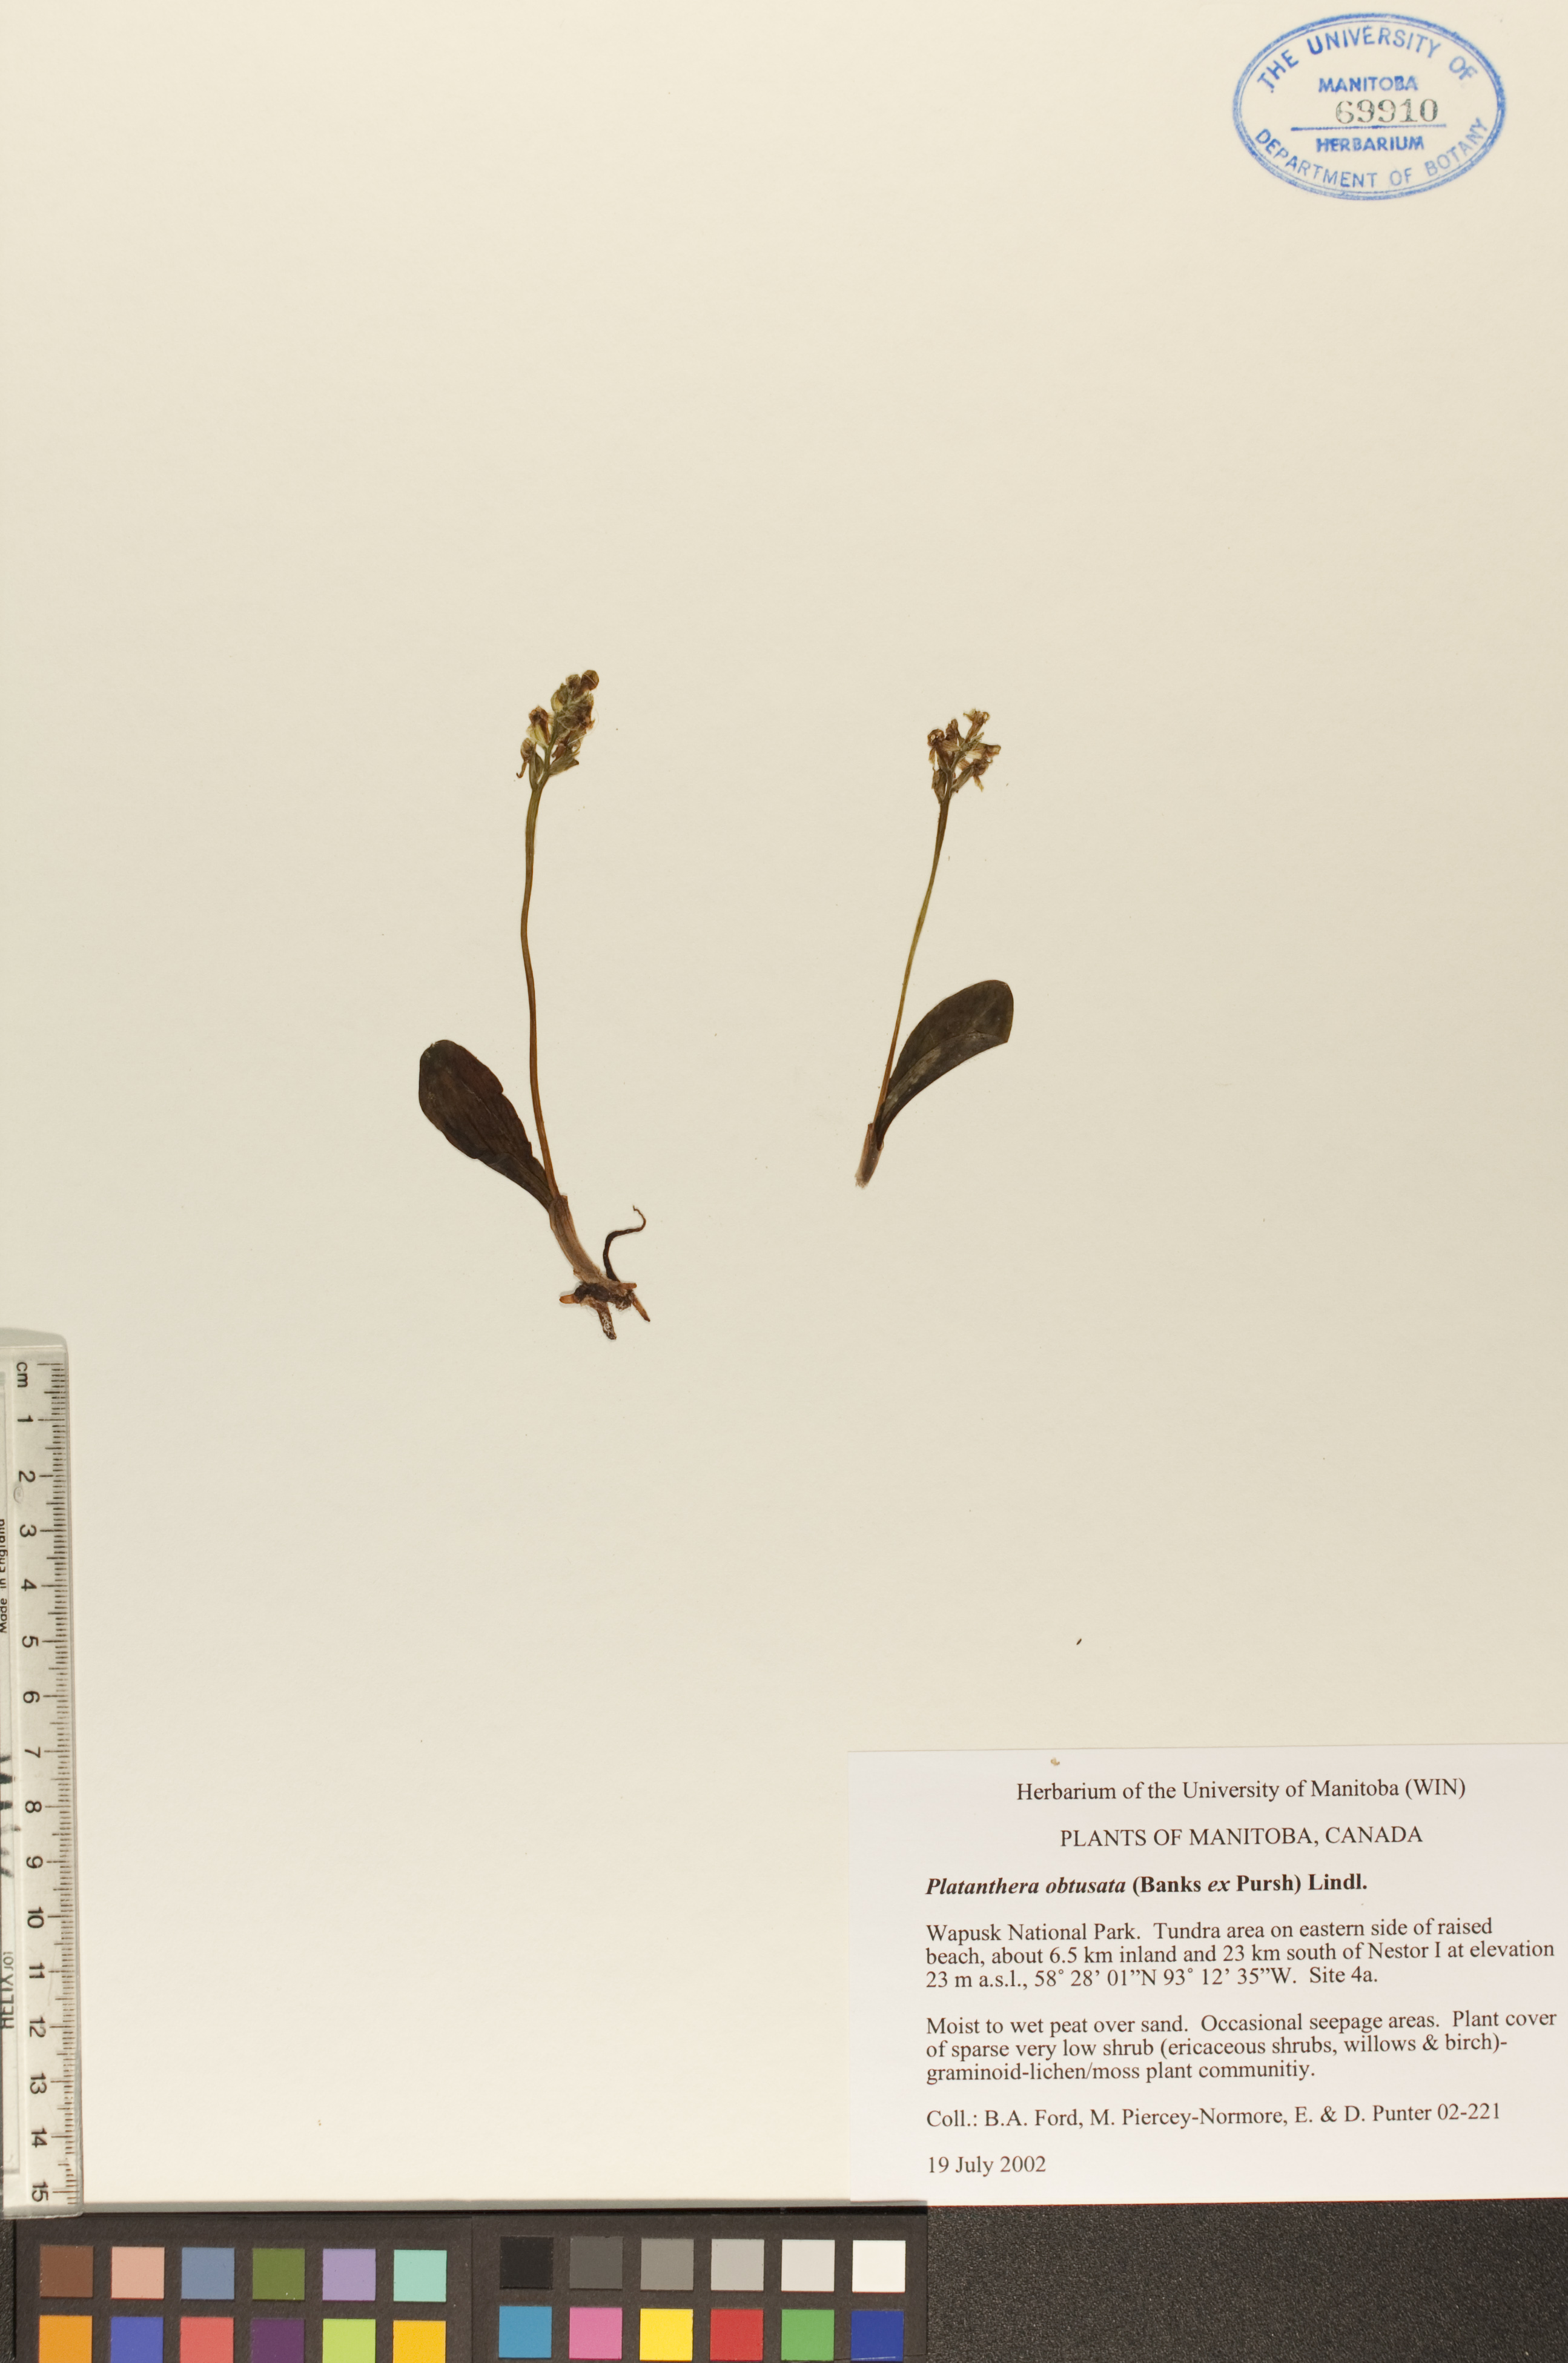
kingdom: Plantae
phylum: Tracheophyta
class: Liliopsida
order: Asparagales
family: Orchidaceae
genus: Platanthera
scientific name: Platanthera obtusata
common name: Blunt bog orchid
